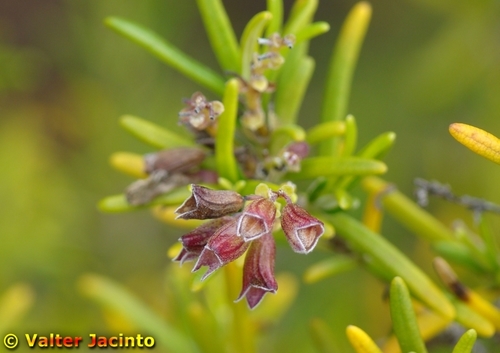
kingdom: Plantae
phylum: Tracheophyta
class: Magnoliopsida
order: Lamiales
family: Lamiaceae
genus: Salvia
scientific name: Salvia rosmarinus
